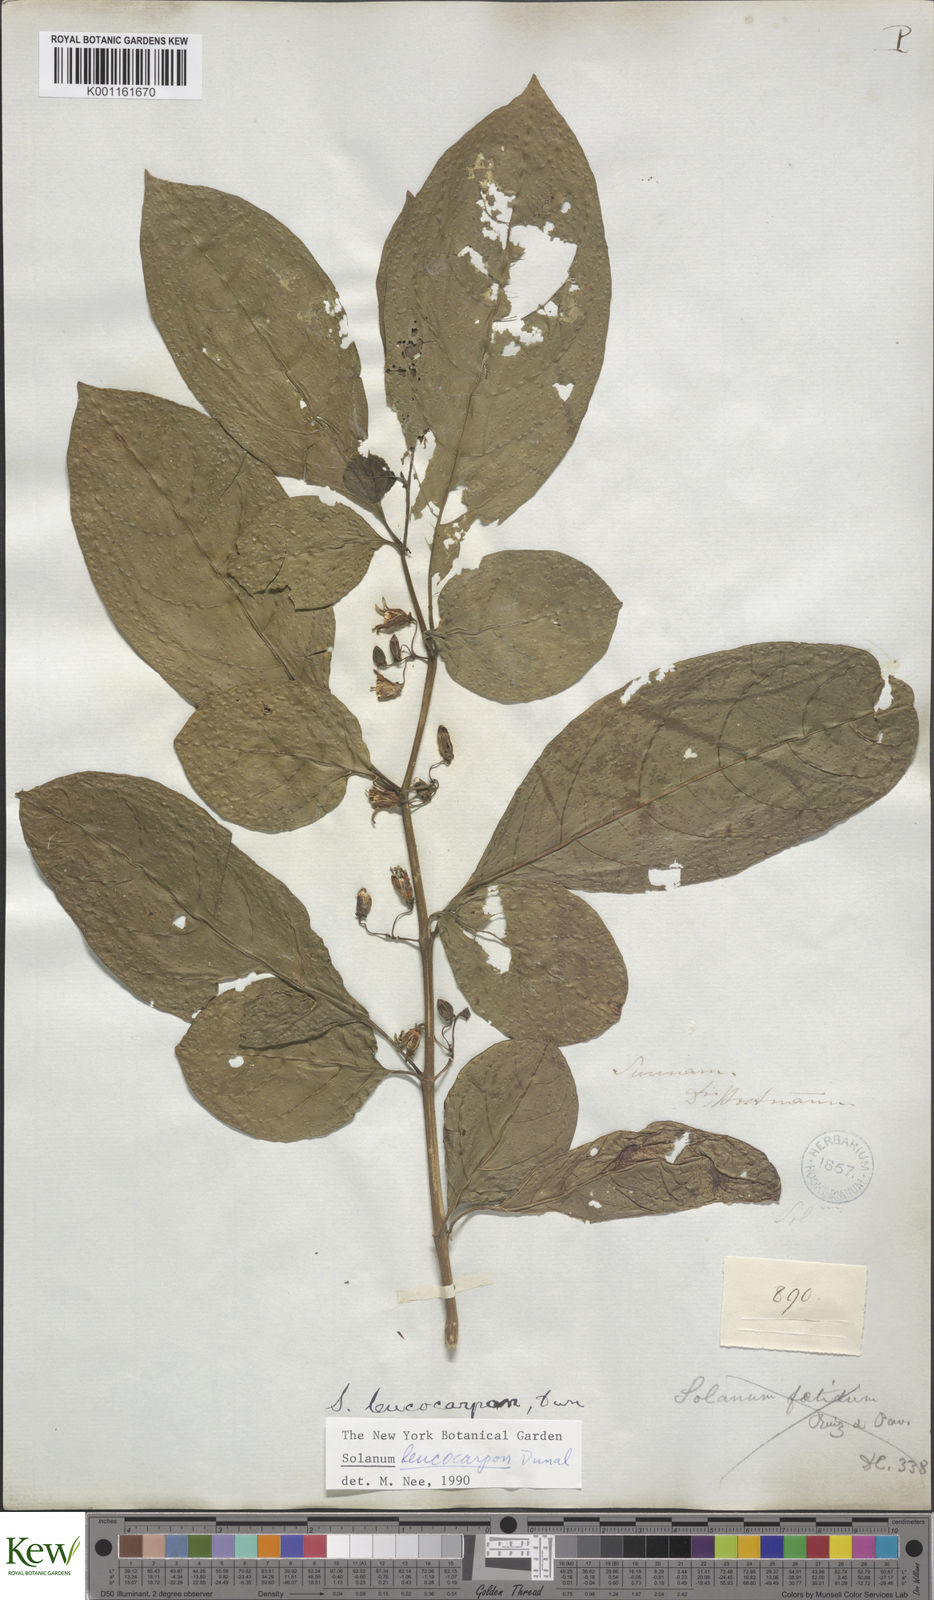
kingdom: Plantae
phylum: Tracheophyta
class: Magnoliopsida
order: Solanales
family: Solanaceae
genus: Solanum
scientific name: Solanum leucocarpon
